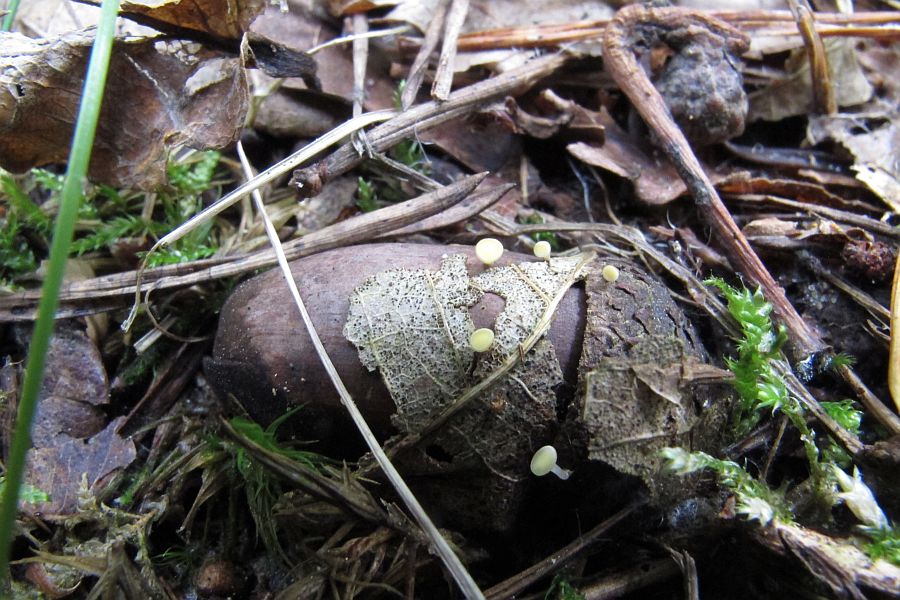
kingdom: Fungi
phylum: Ascomycota
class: Leotiomycetes
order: Helotiales
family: Helotiaceae
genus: Hymenoscyphus
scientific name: Hymenoscyphus fructigenus
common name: frugt-stilkskive
